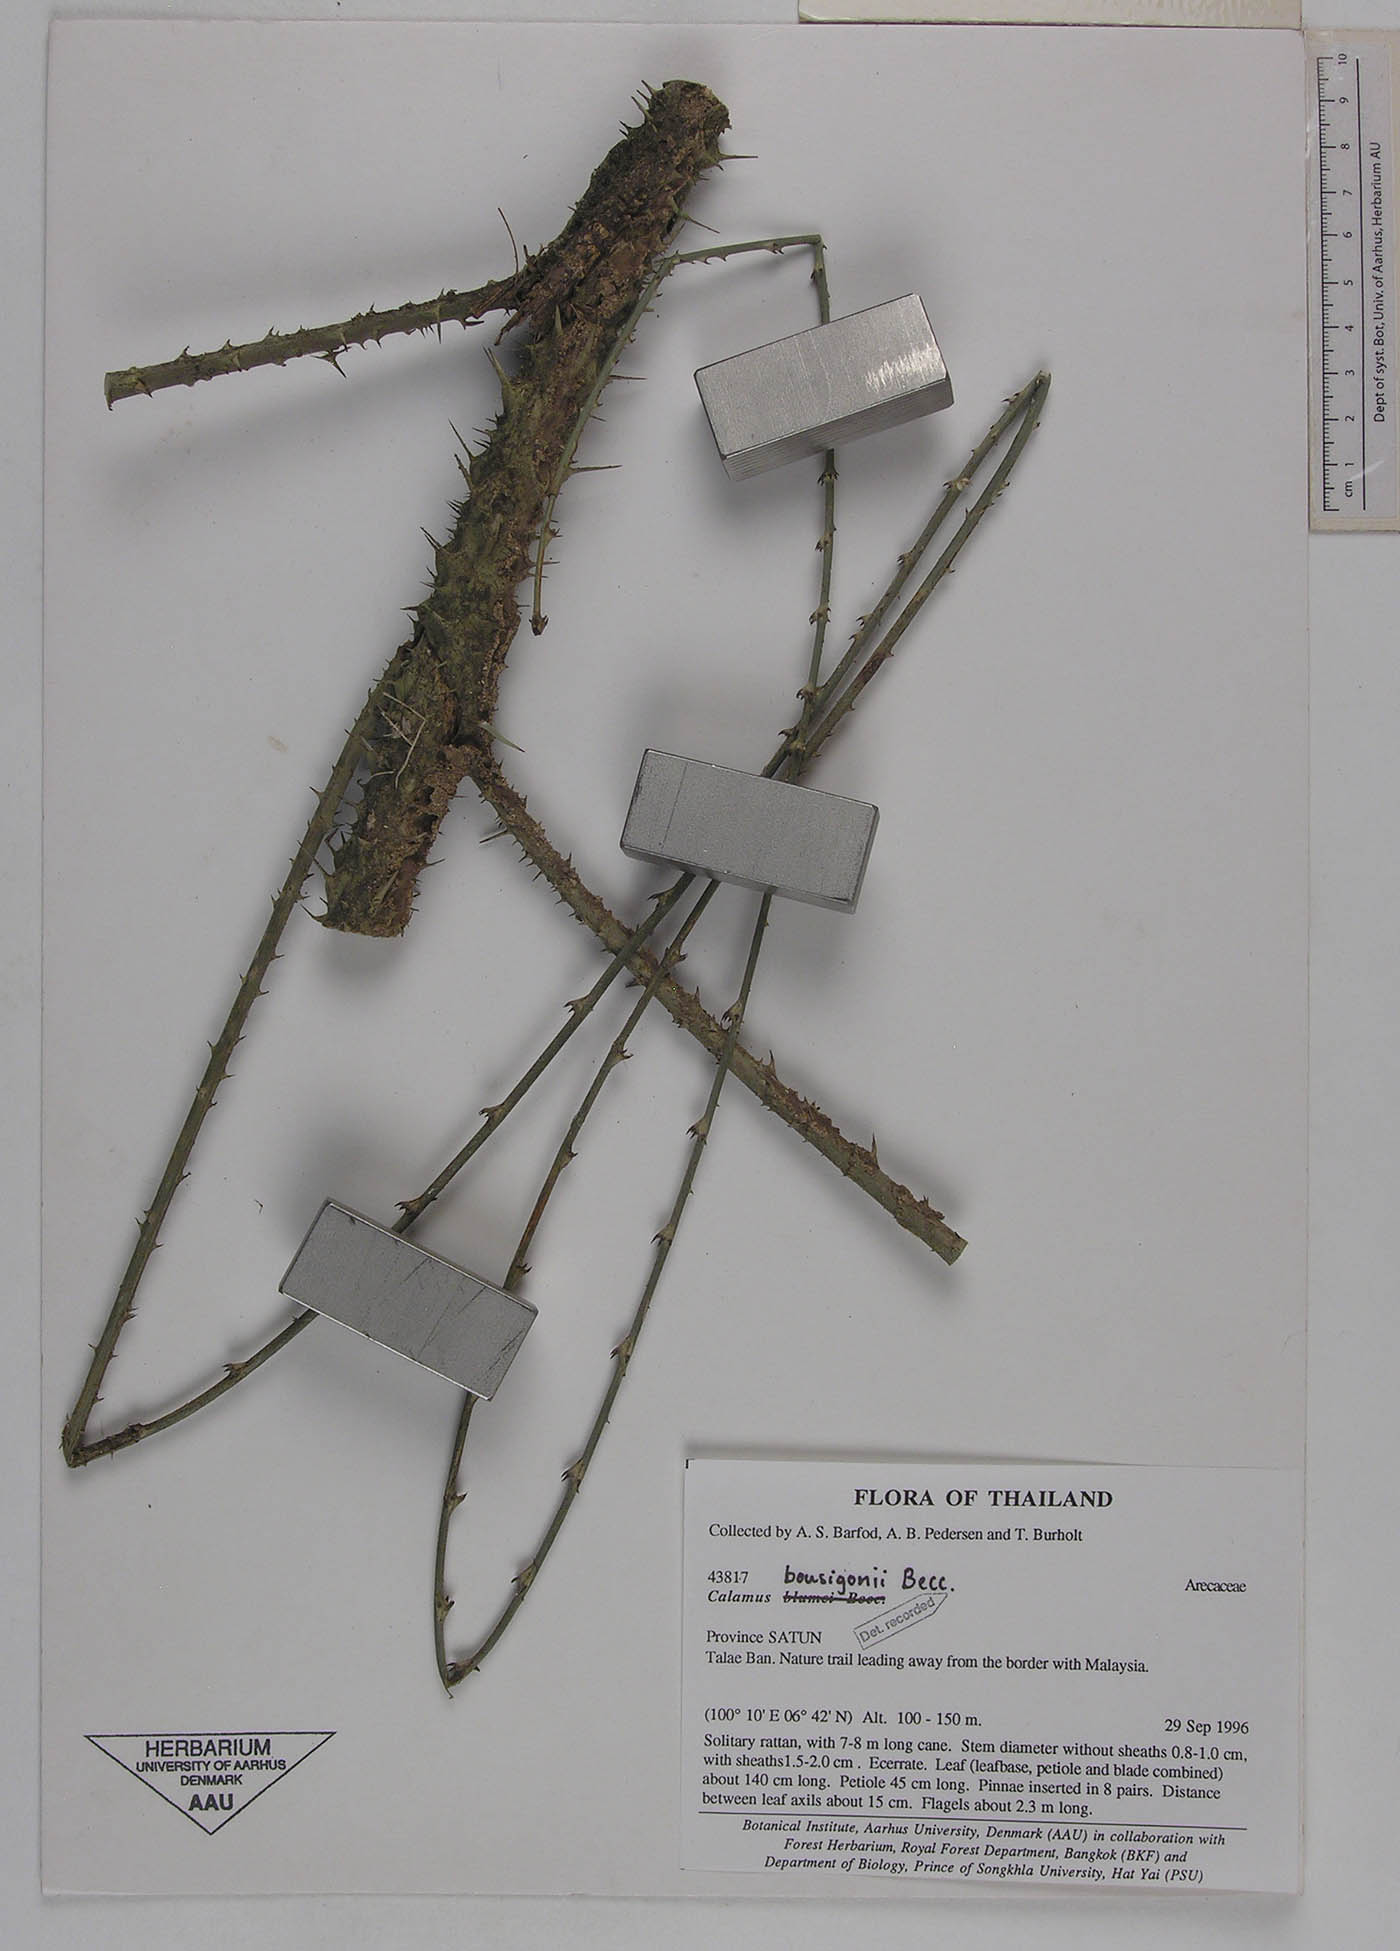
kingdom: Plantae
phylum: Tracheophyta
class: Liliopsida
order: Arecales
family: Arecaceae
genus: Calamus
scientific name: Calamus bousigonii
